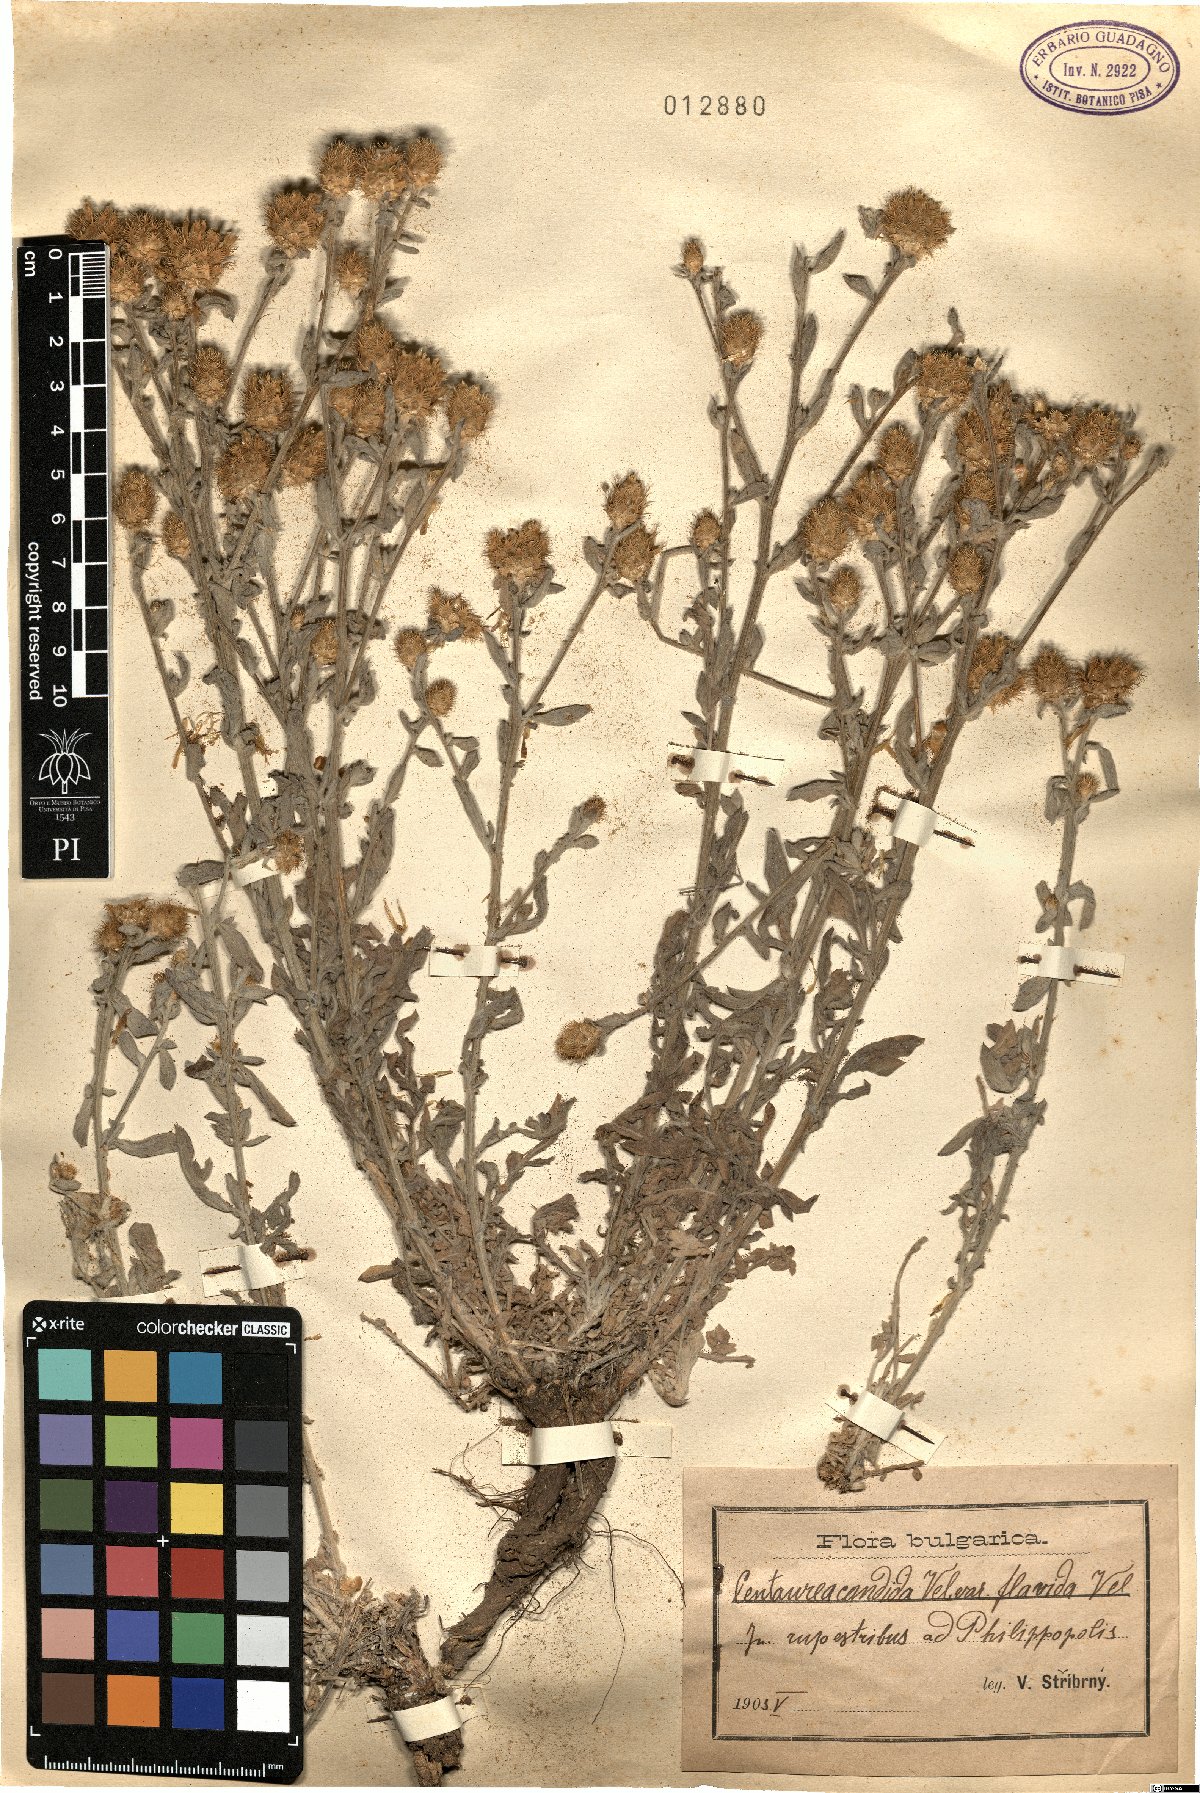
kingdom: Plantae
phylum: Tracheophyta
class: Magnoliopsida
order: Asterales
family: Asteraceae
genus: Centaurea
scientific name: Centaurea affinis
